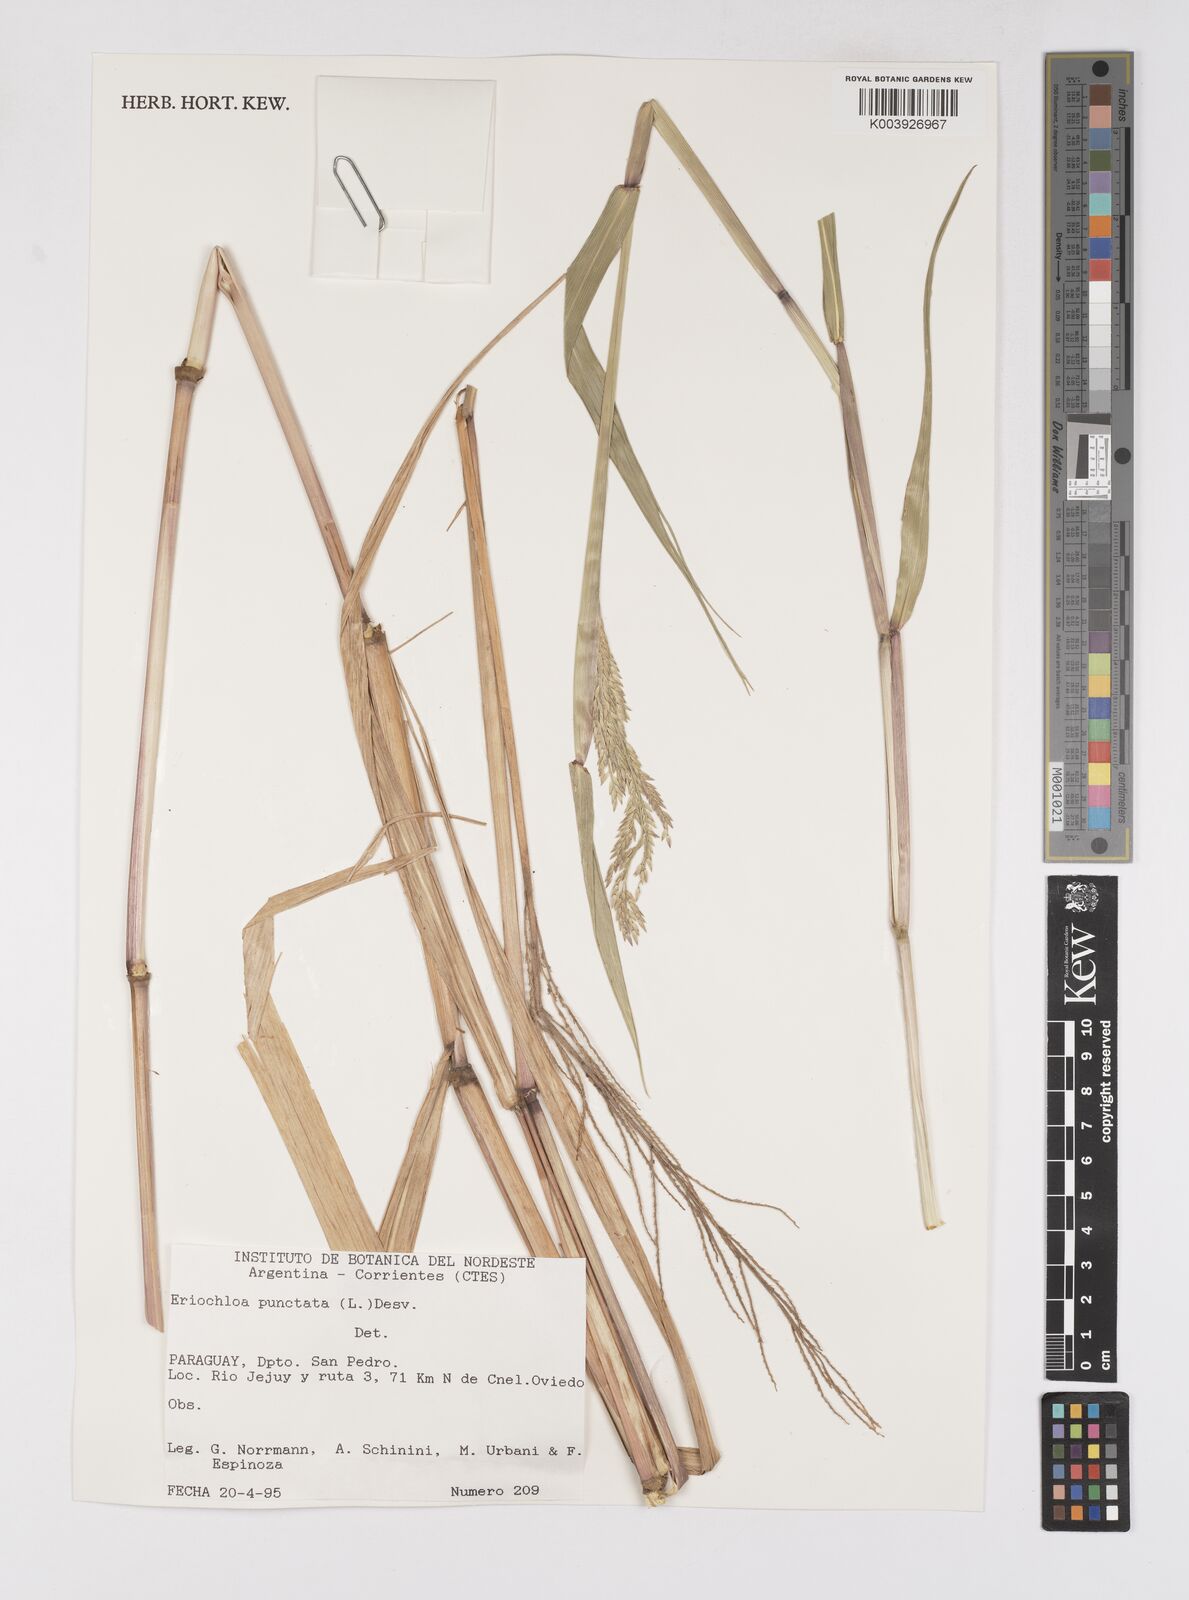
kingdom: Plantae
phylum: Tracheophyta
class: Liliopsida
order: Poales
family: Poaceae
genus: Eriochloa
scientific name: Eriochloa punctata
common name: Louisiana cupgrass
